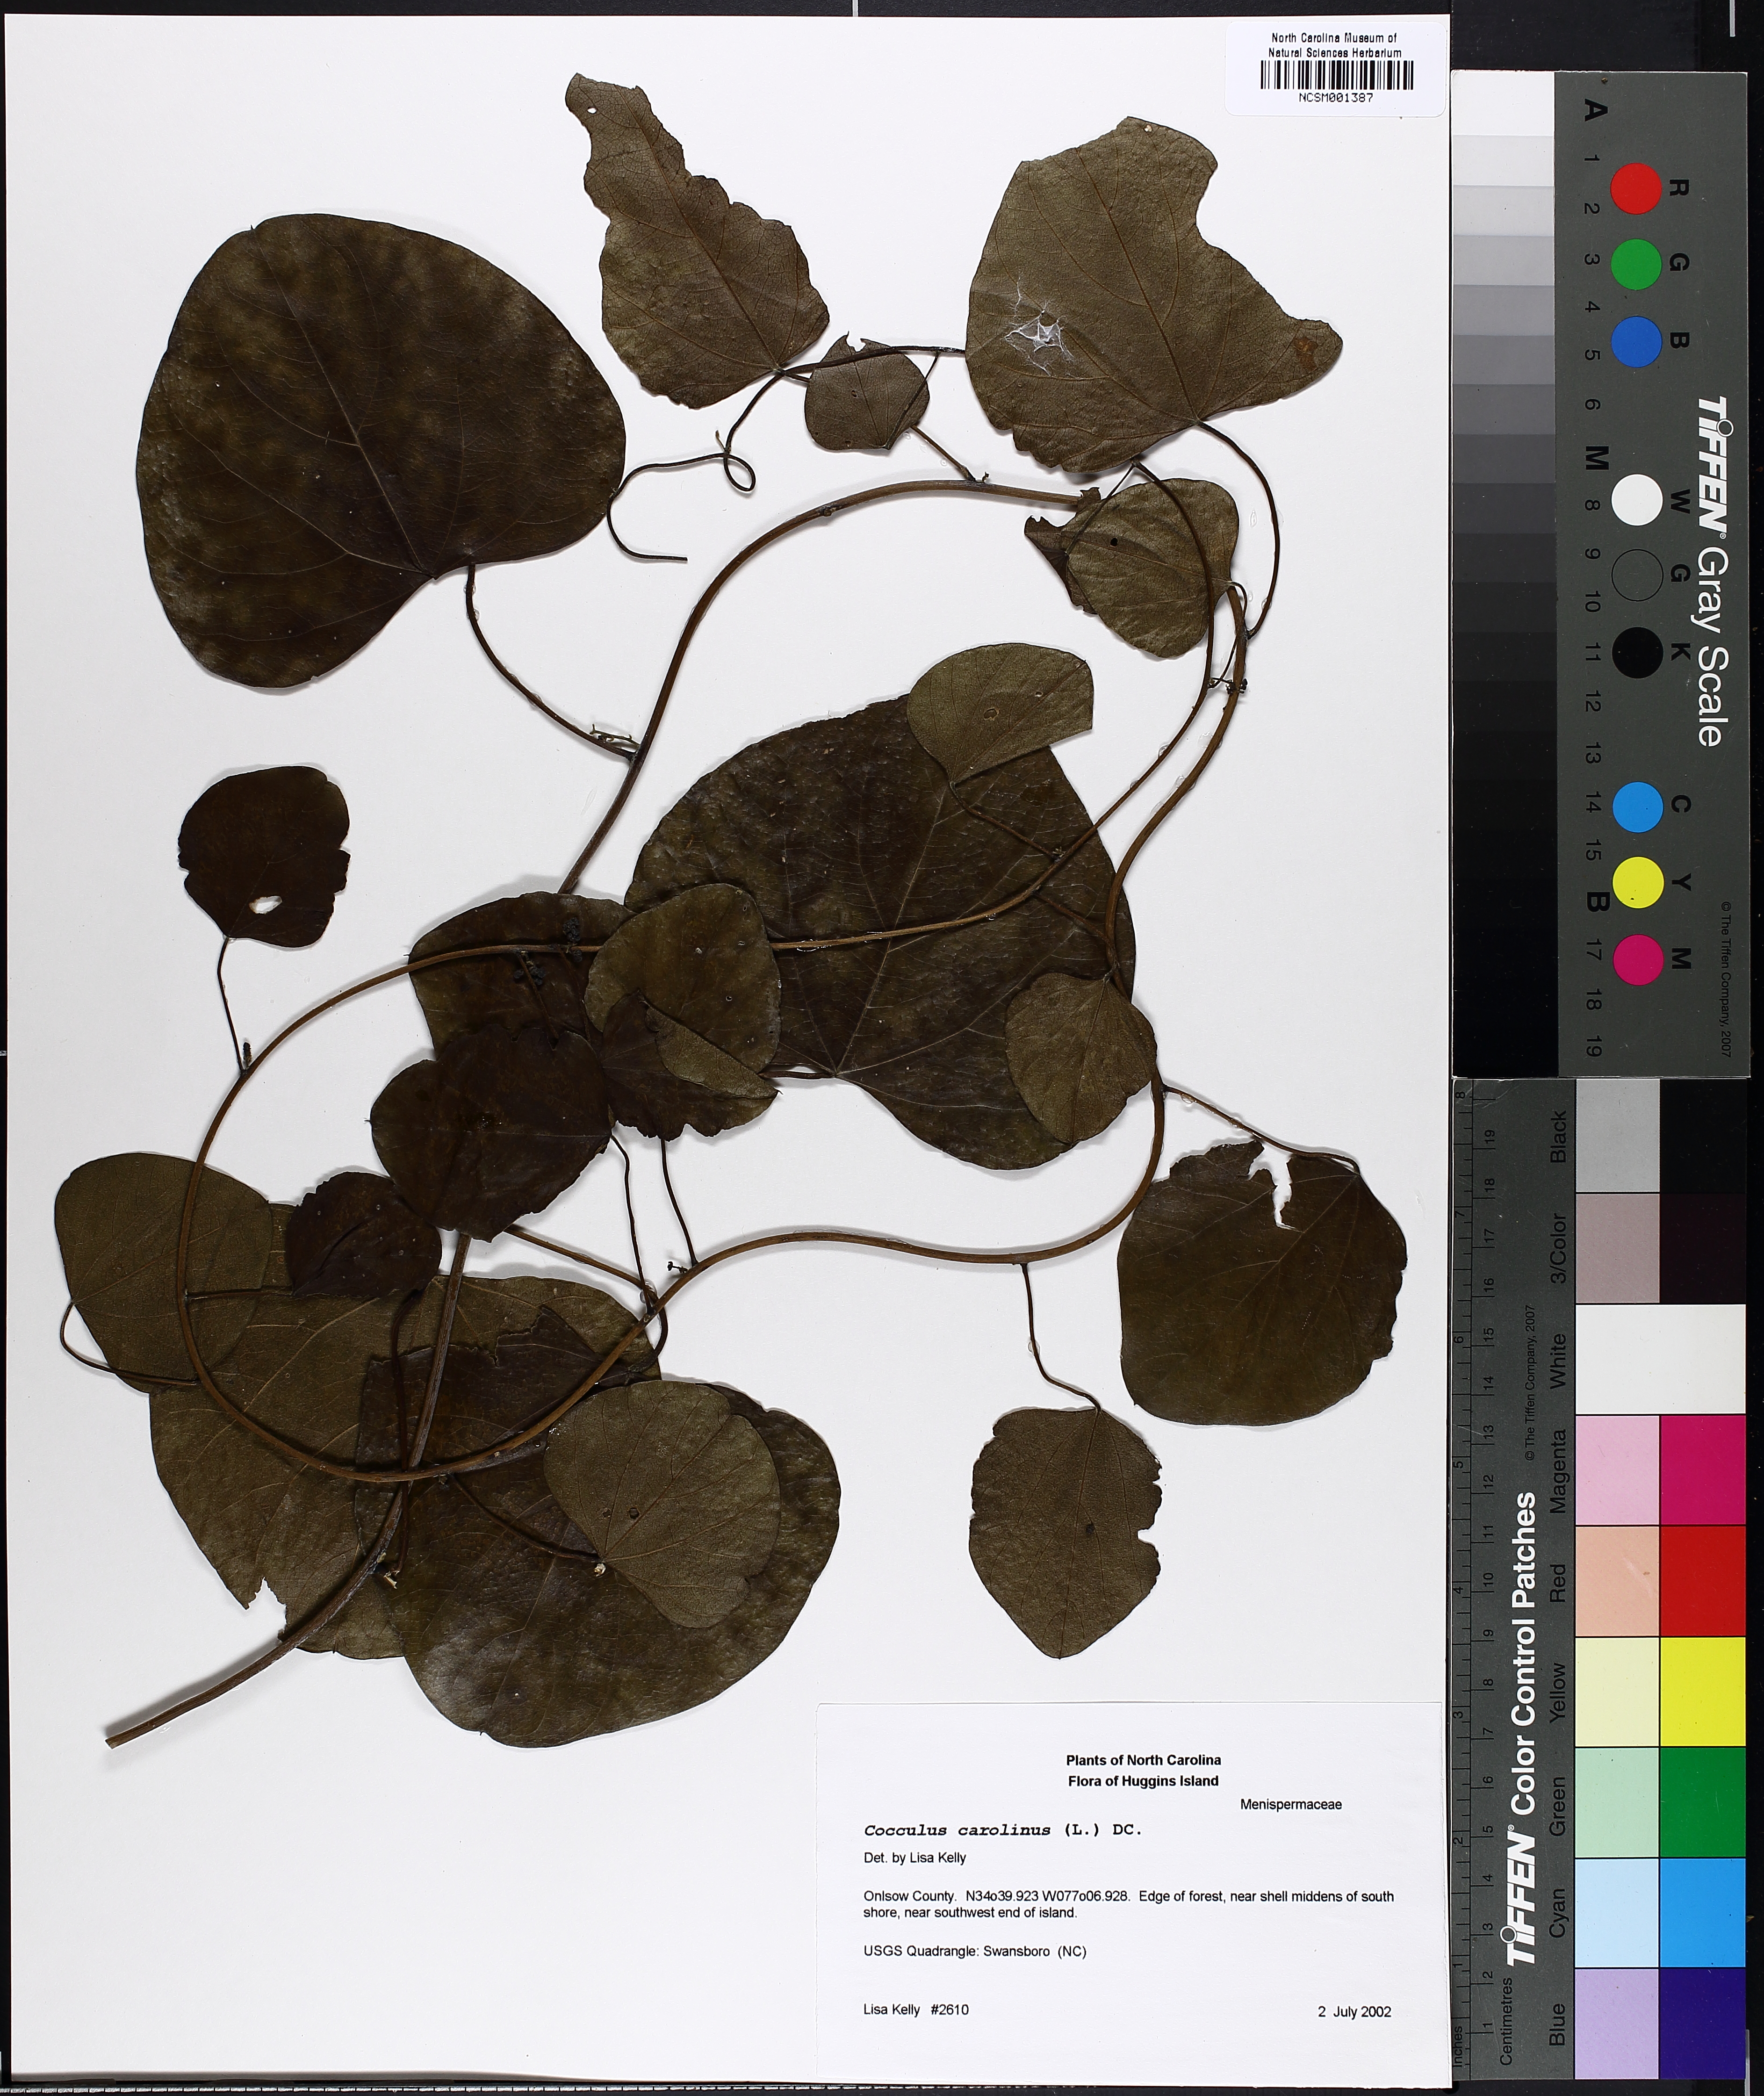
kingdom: Plantae
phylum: Tracheophyta
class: Magnoliopsida
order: Ranunculales
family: Menispermaceae
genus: Cocculus
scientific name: Cocculus carolinus
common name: Carolina moonseed
